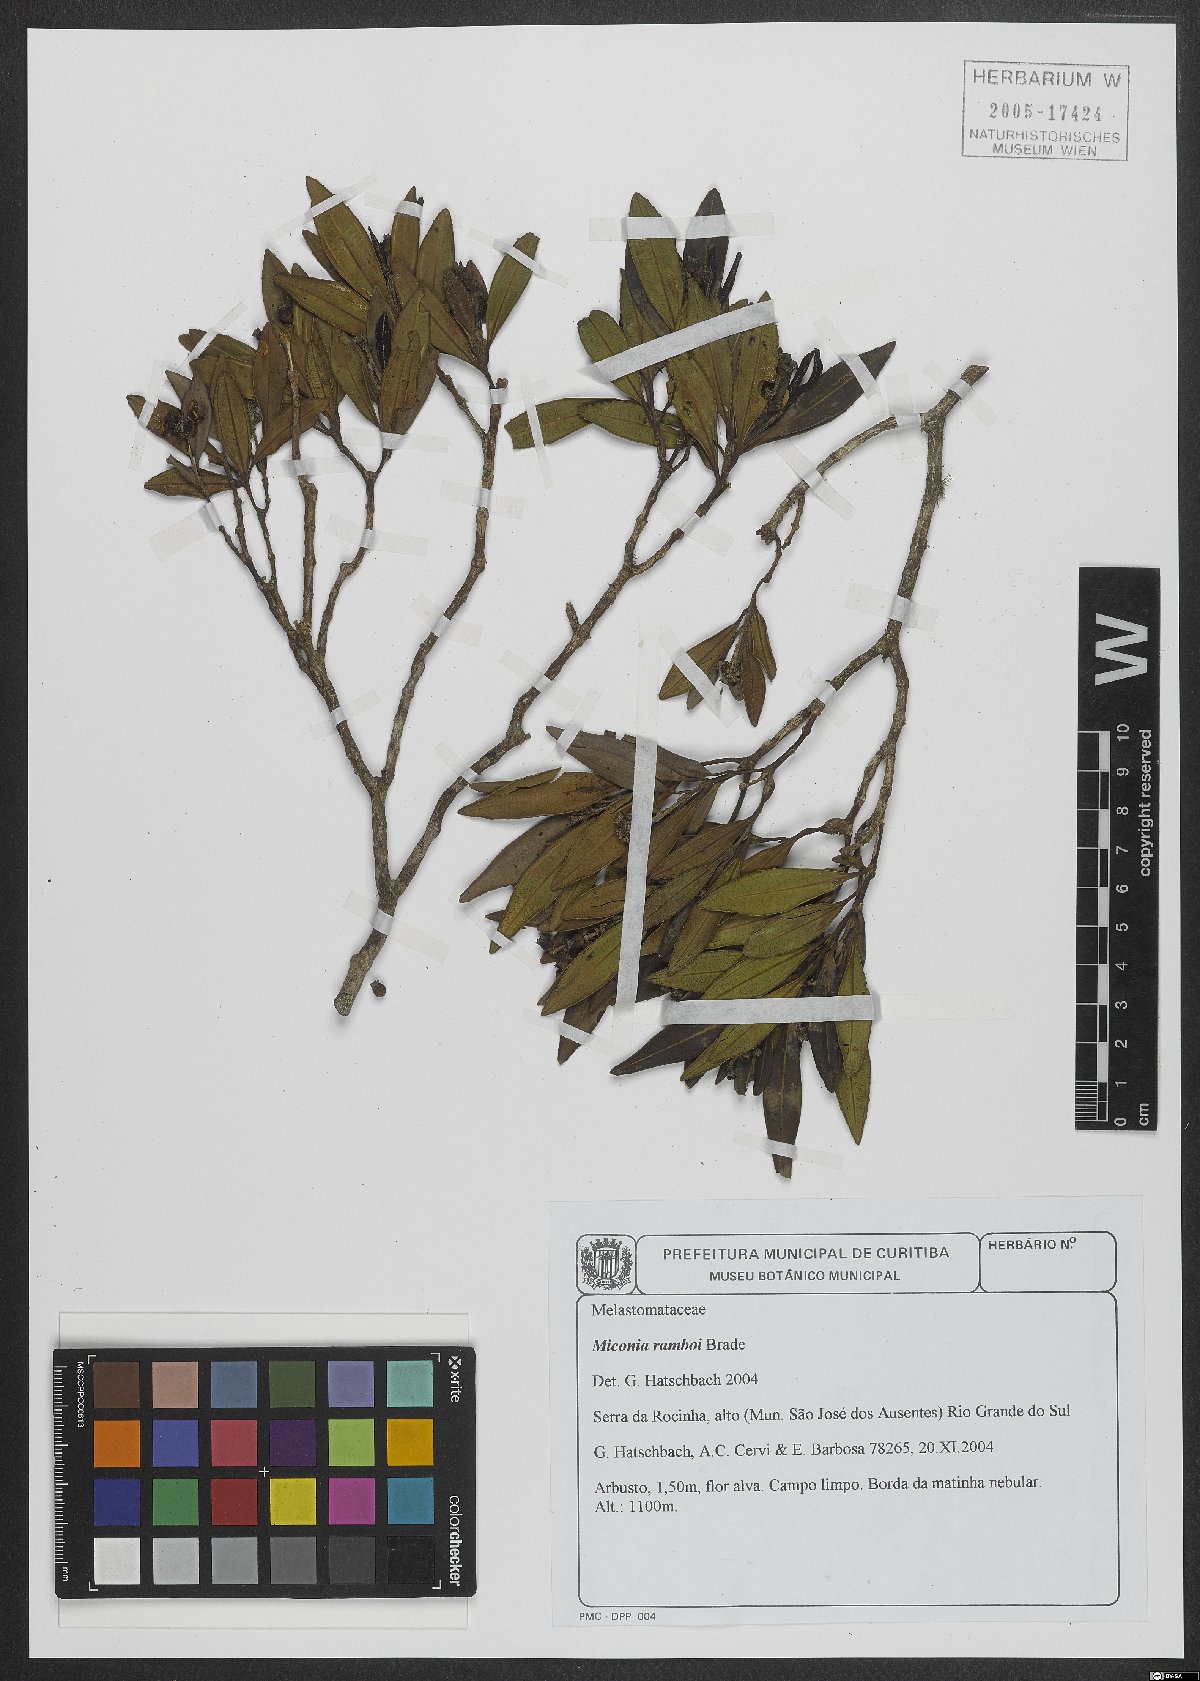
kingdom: Plantae
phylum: Tracheophyta
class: Magnoliopsida
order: Myrtales
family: Melastomataceae
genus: Miconia
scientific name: Miconia ramboi
